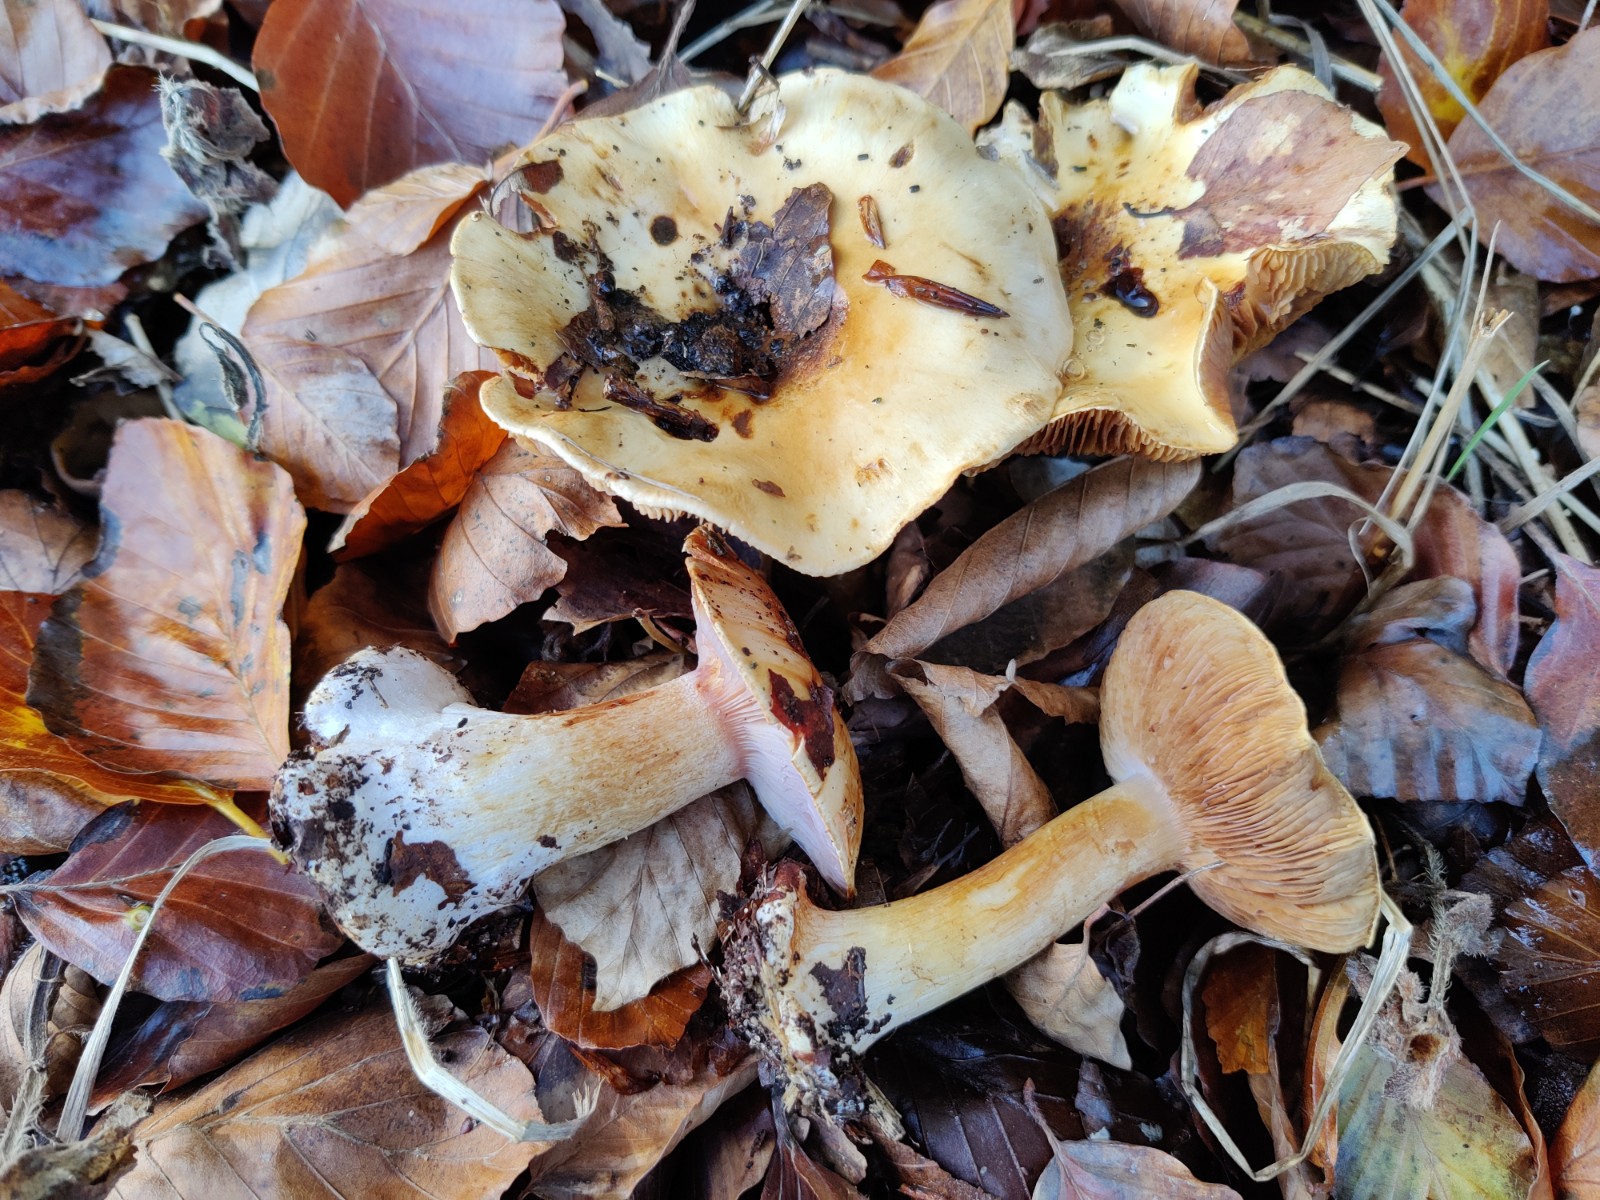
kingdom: Fungi
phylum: Basidiomycota
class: Agaricomycetes
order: Agaricales
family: Cortinariaceae
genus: Calonarius
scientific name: Calonarius platypus
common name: platfodet slørhat
